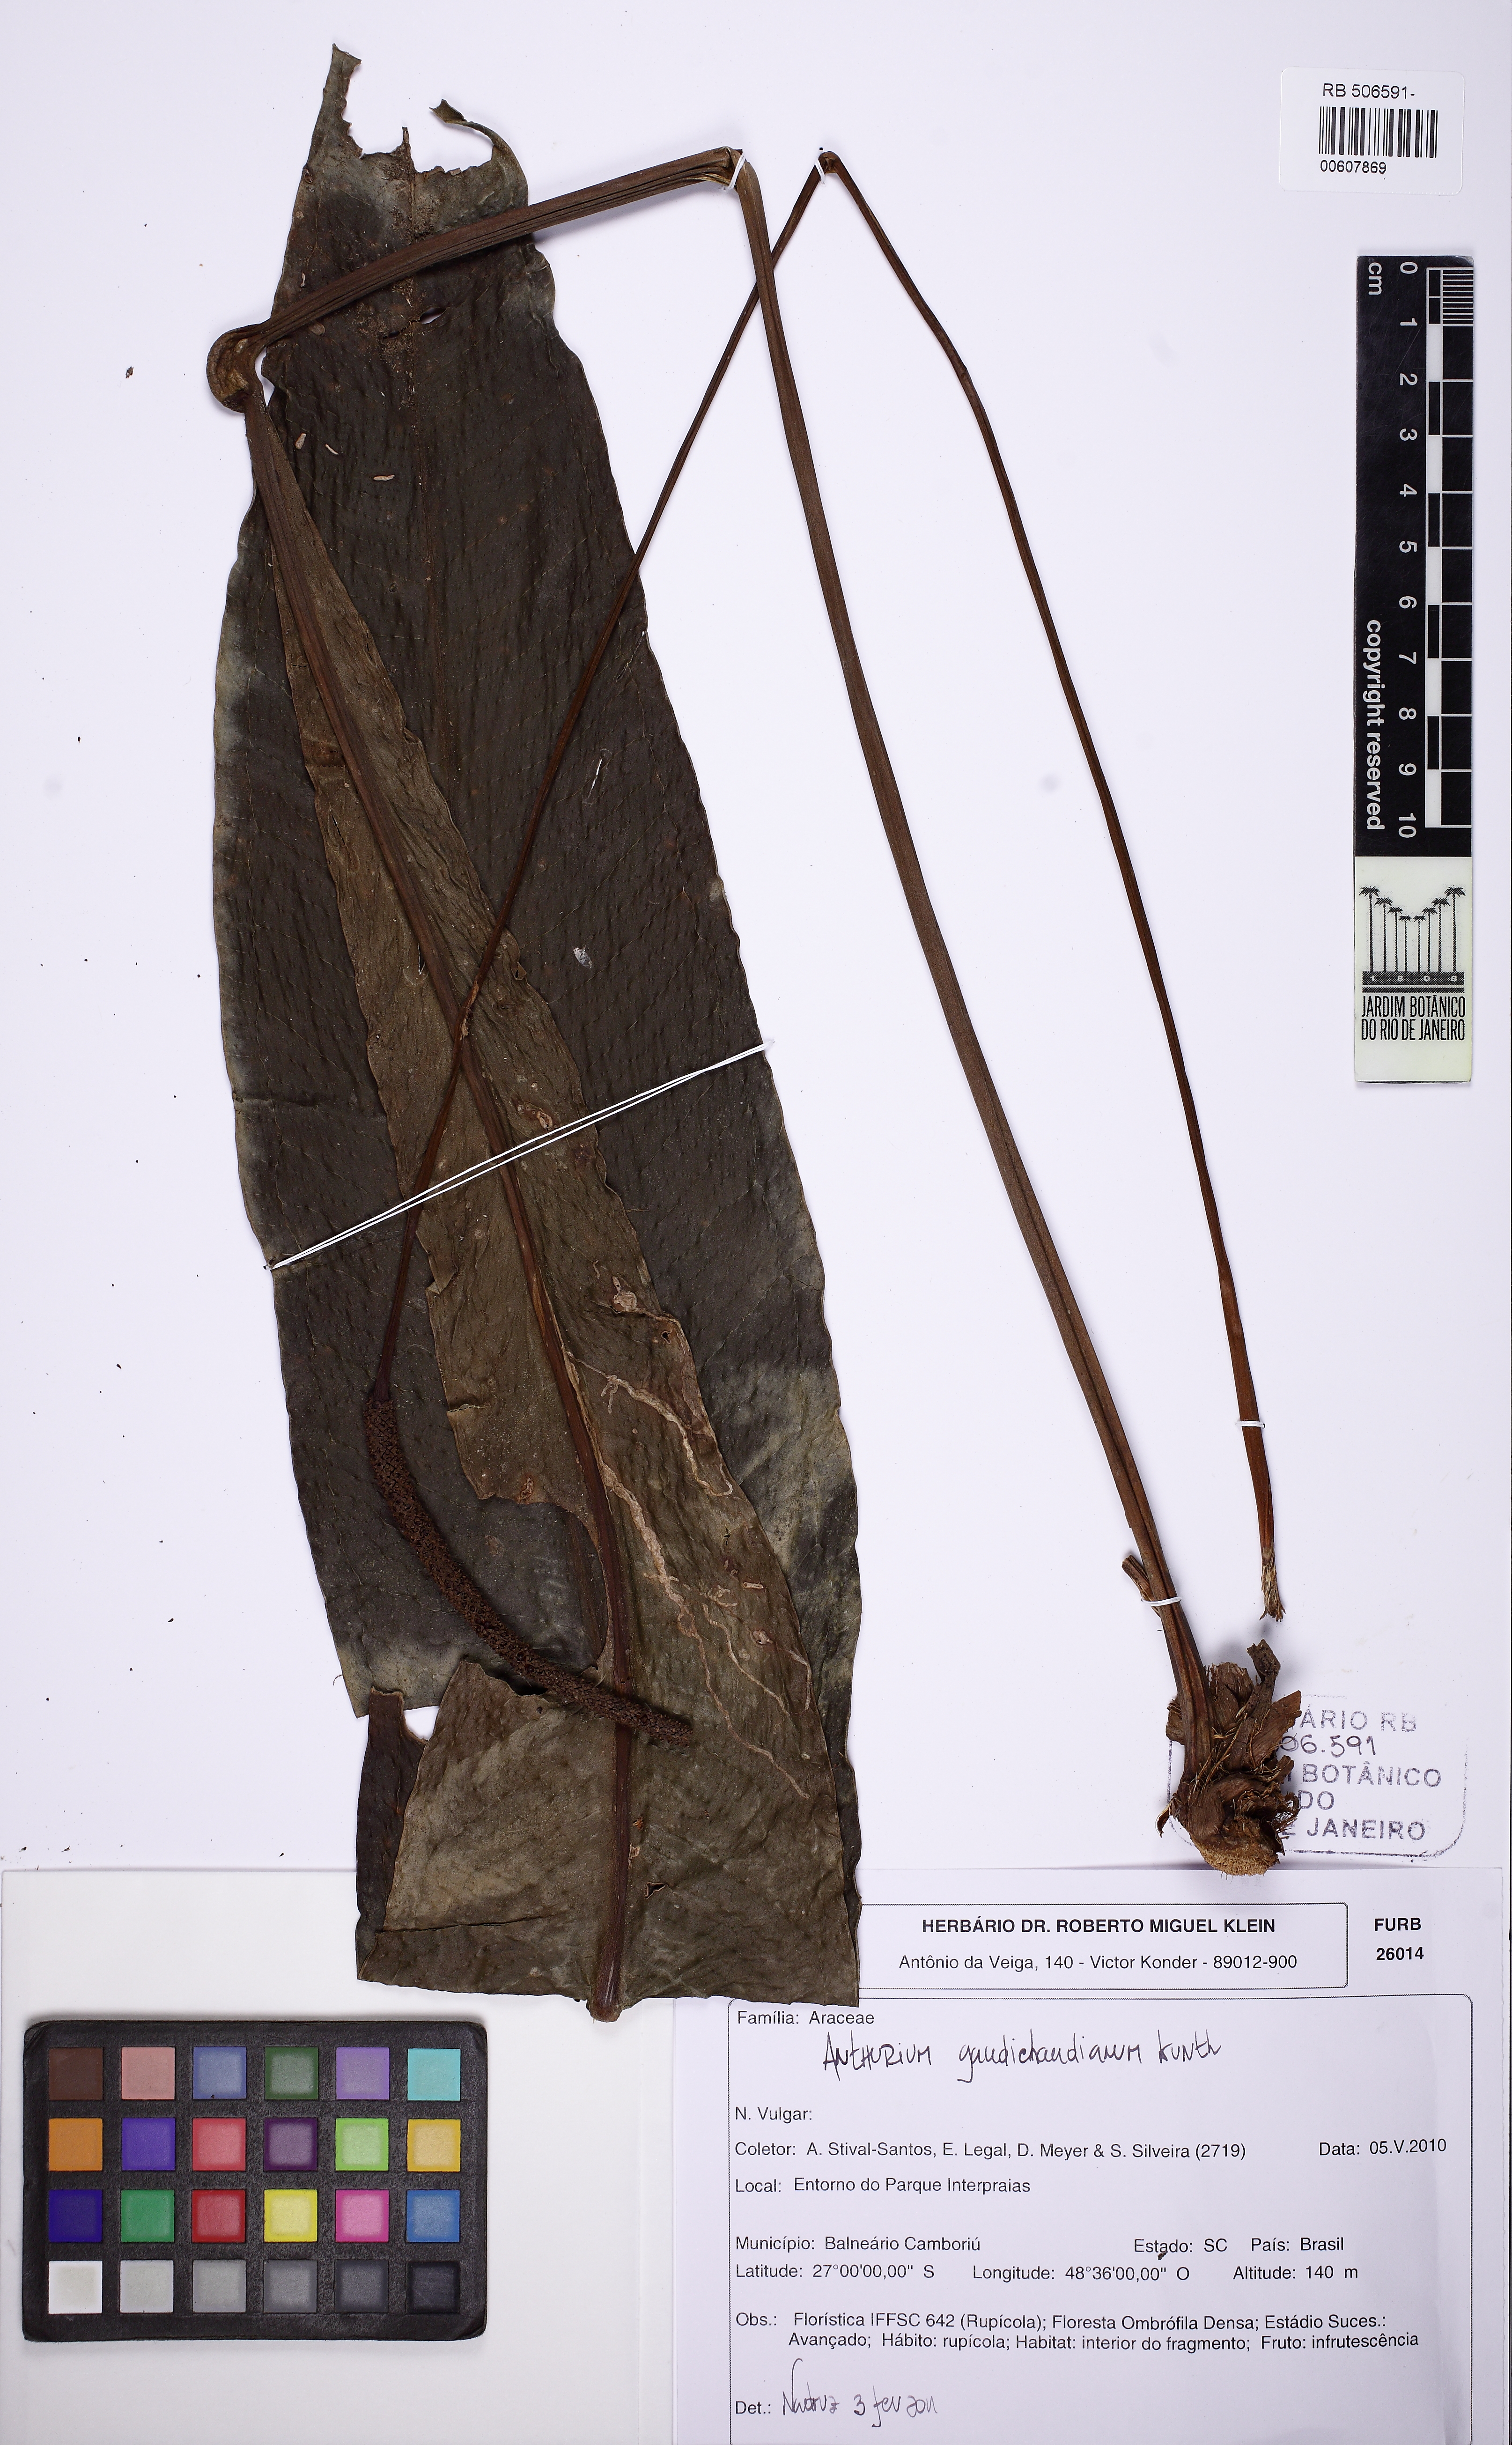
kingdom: Plantae
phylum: Tracheophyta
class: Liliopsida
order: Alismatales
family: Araceae
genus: Anthurium
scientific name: Anthurium gaudichaudianum
